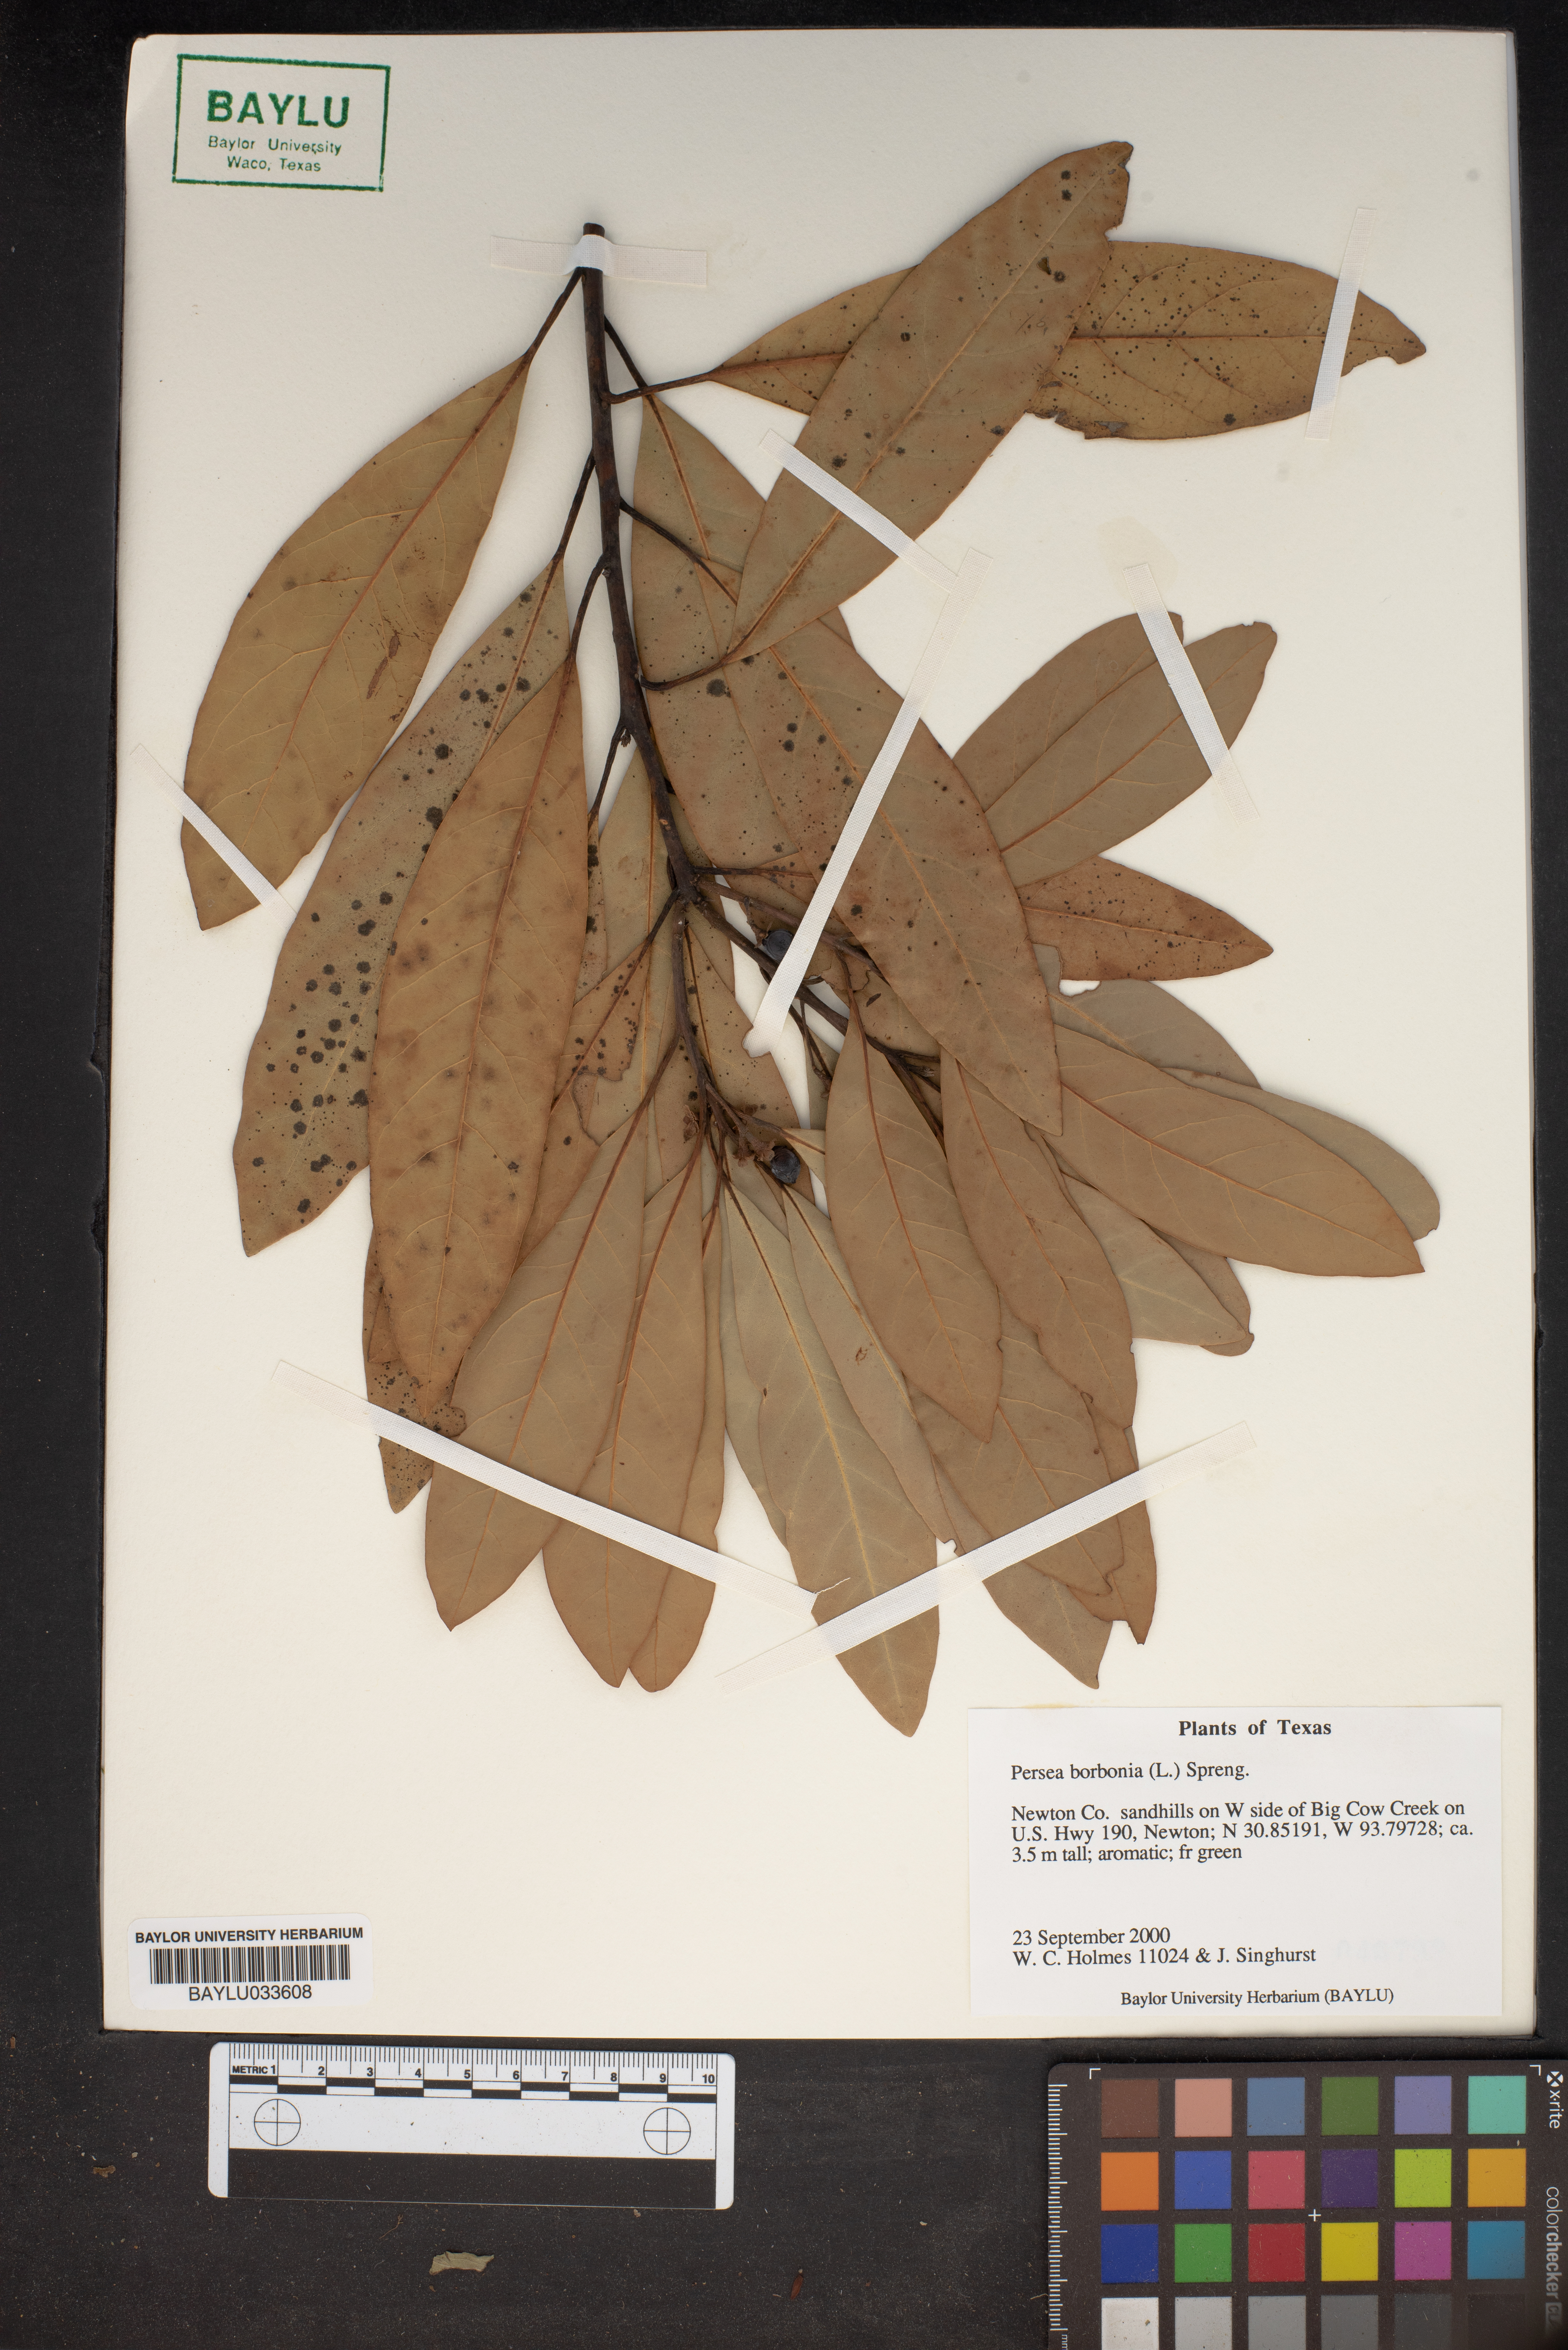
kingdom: Plantae
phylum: Tracheophyta
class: Magnoliopsida
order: Laurales
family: Lauraceae
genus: Persea
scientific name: Persea borbonia
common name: Redbay
